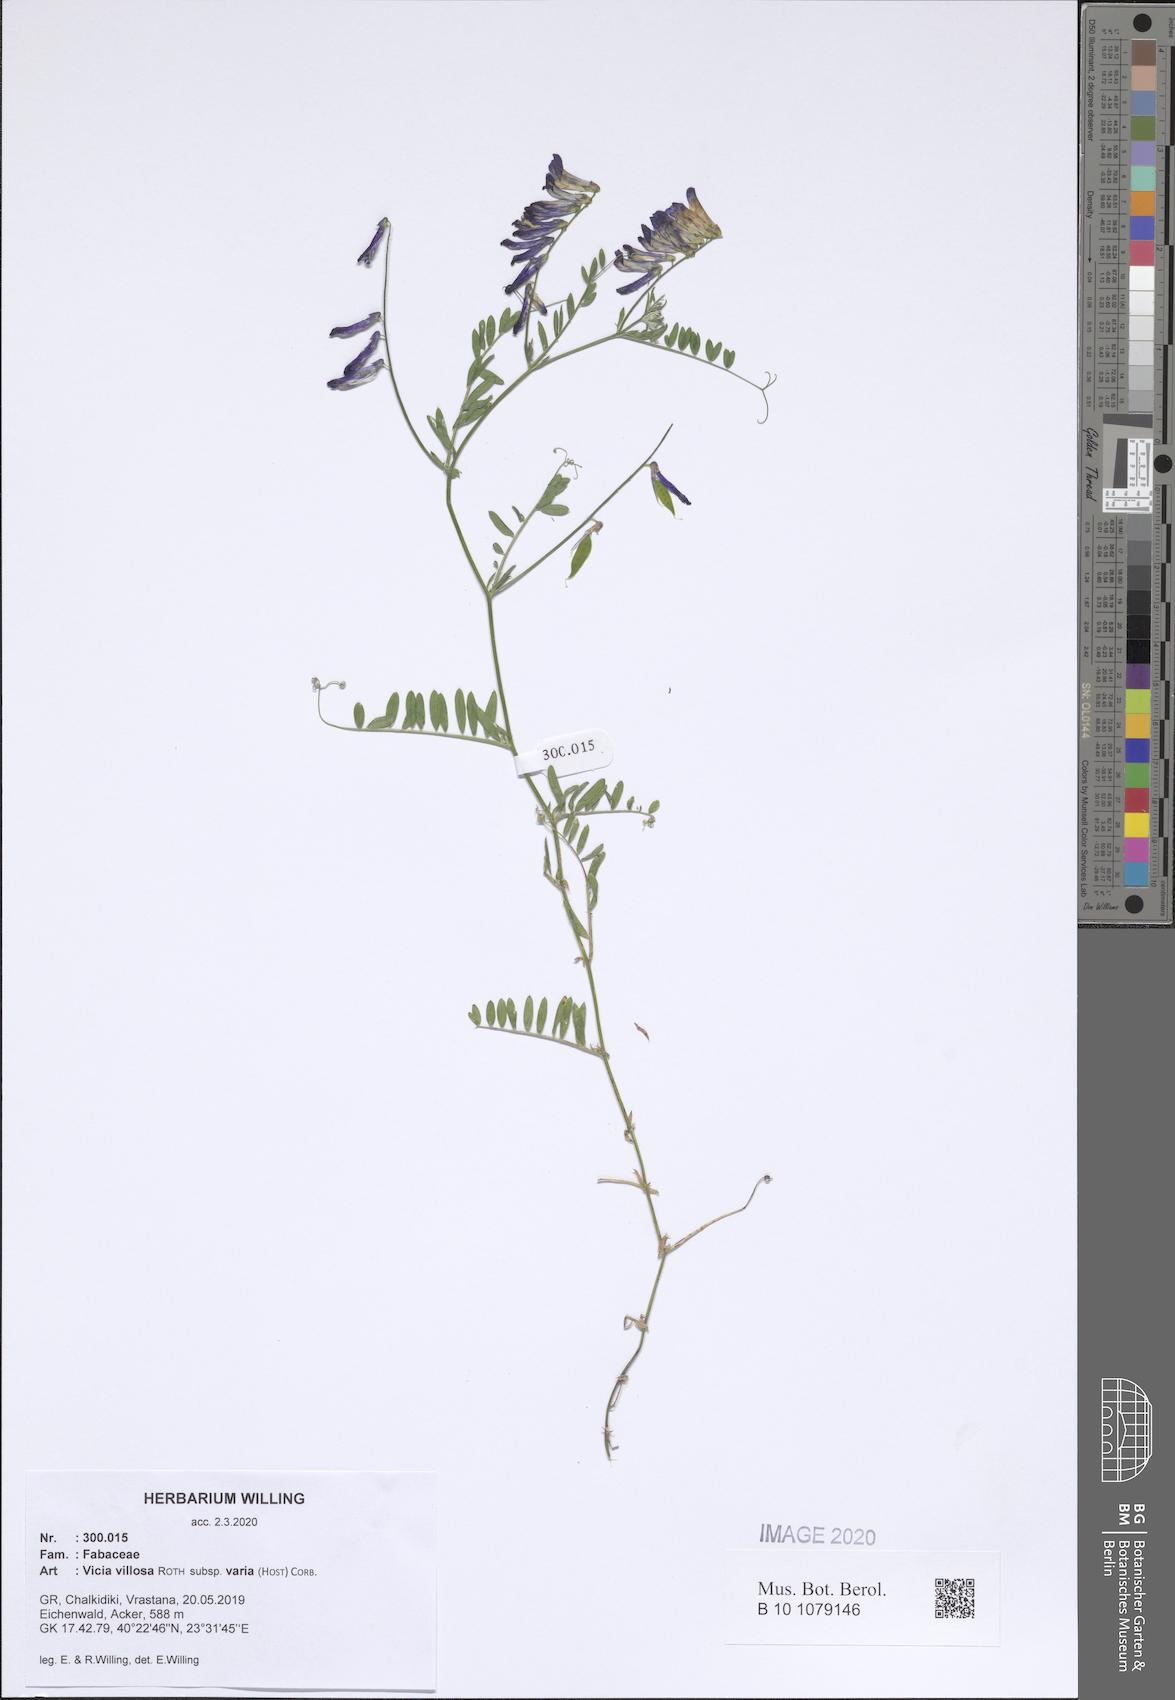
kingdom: Plantae
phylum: Tracheophyta
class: Magnoliopsida
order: Fabales
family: Fabaceae
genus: Vicia
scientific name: Vicia villosa
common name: Fodder vetch
